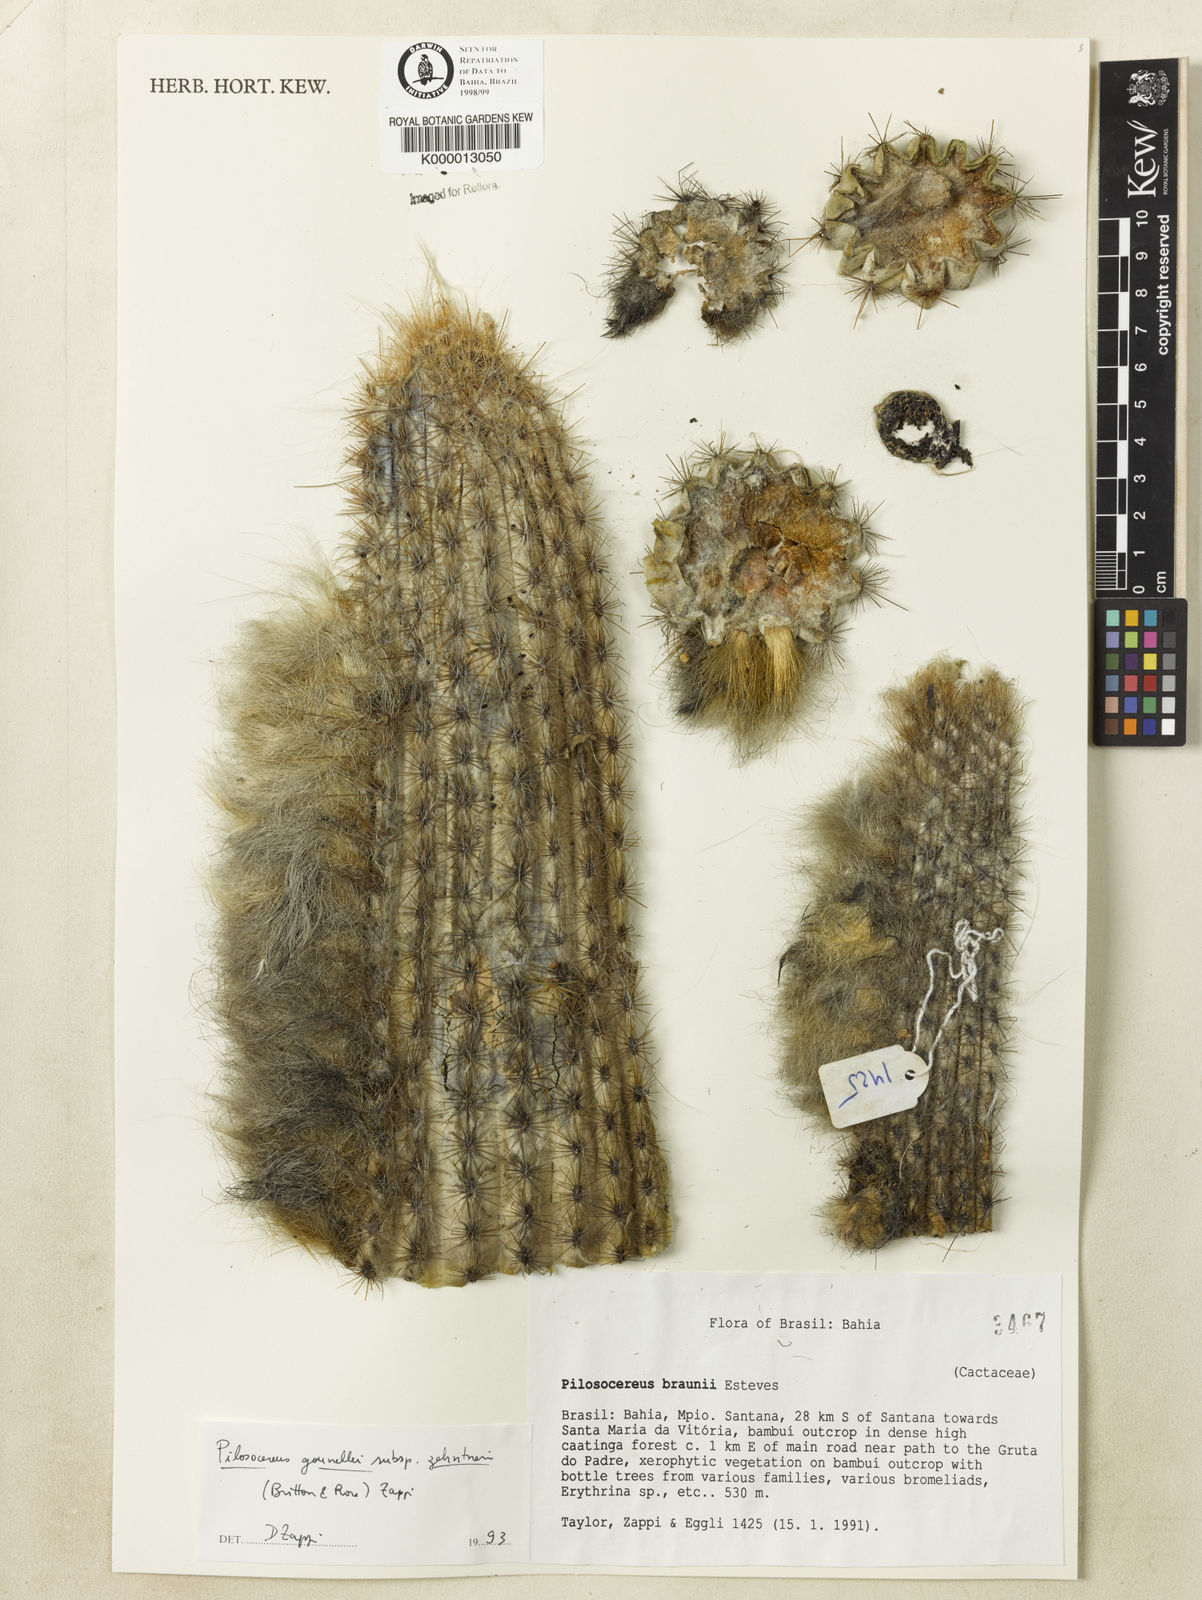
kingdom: Plantae
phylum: Tracheophyta
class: Magnoliopsida
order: Caryophyllales
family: Cactaceae
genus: Xiquexique
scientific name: Xiquexique gounellei
